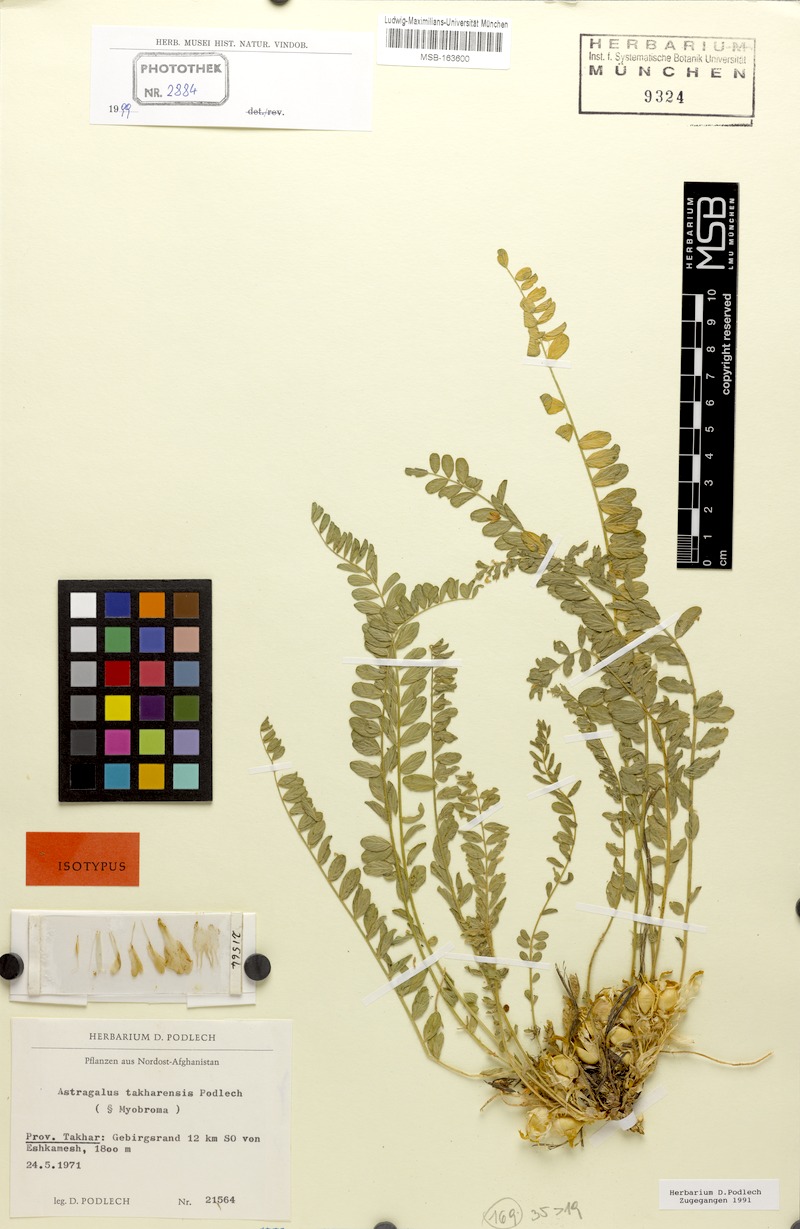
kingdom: Plantae
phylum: Tracheophyta
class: Magnoliopsida
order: Fabales
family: Fabaceae
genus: Astragalus
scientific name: Astragalus takharensis
